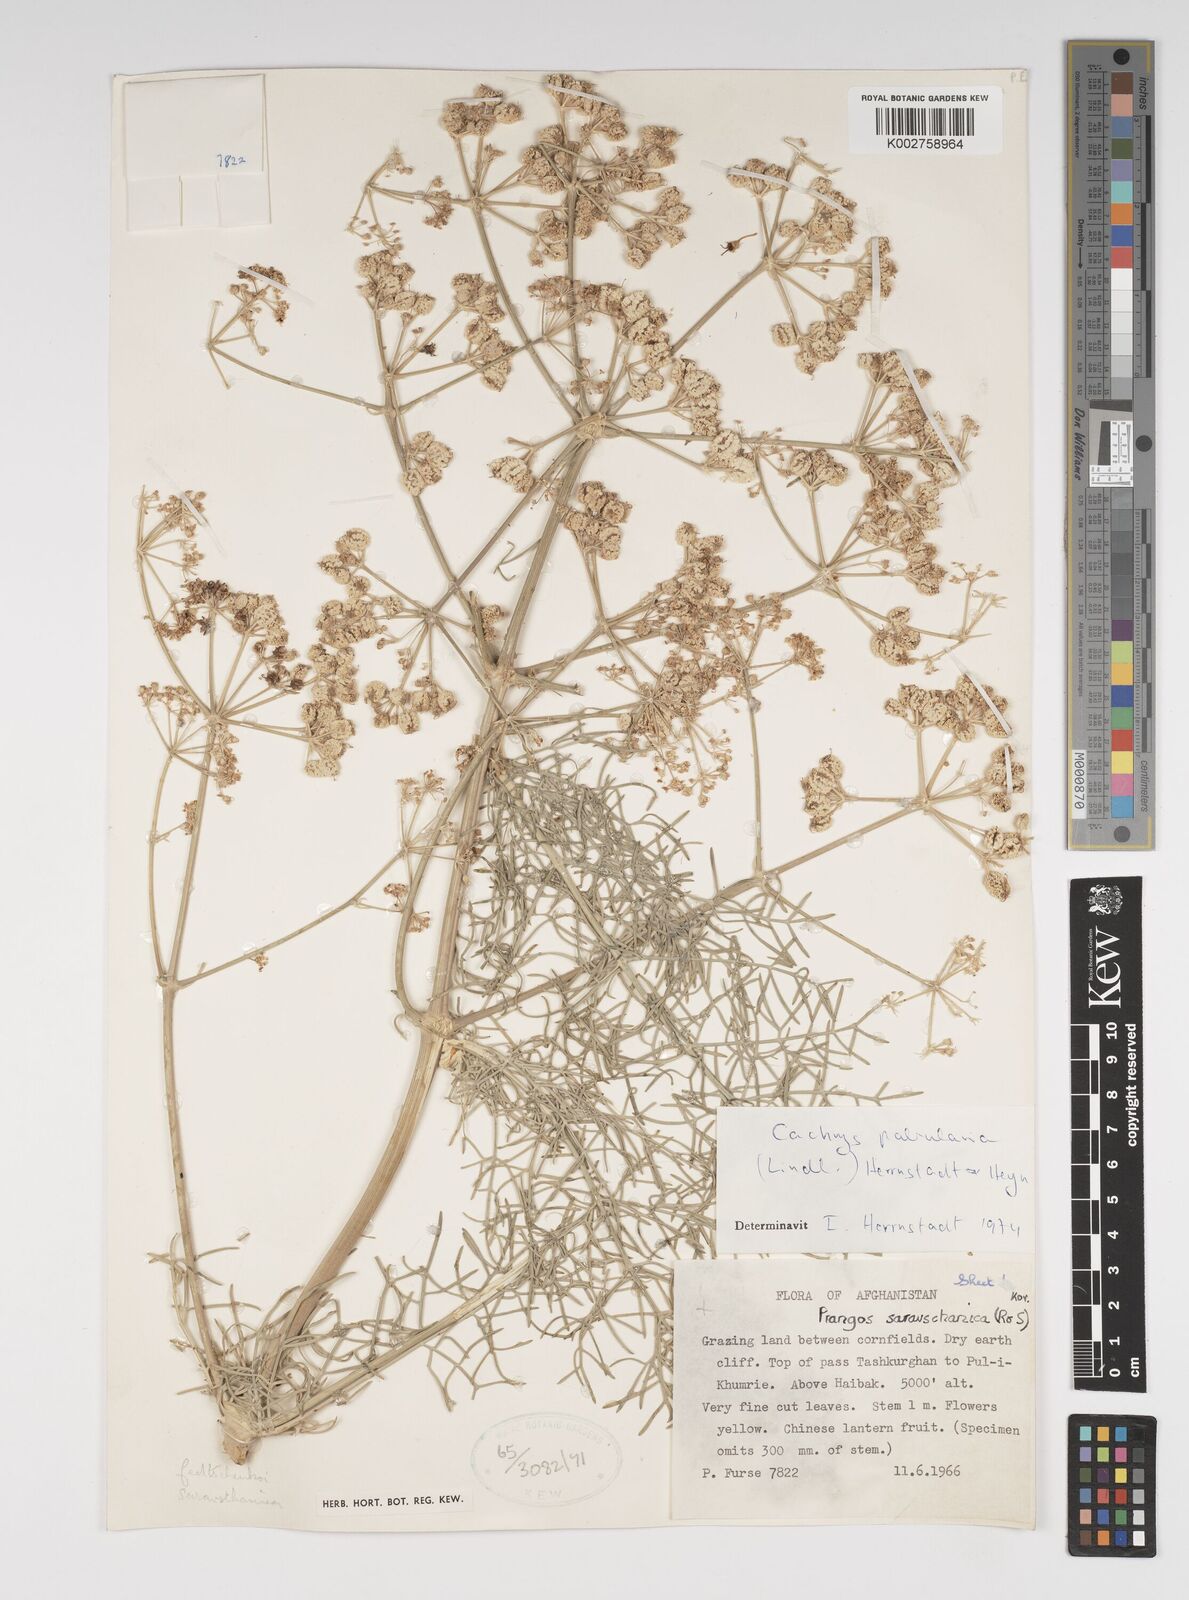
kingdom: Plantae
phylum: Tracheophyta
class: Magnoliopsida
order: Apiales
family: Apiaceae
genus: Prangos
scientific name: Prangos pabularia
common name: Yugan
